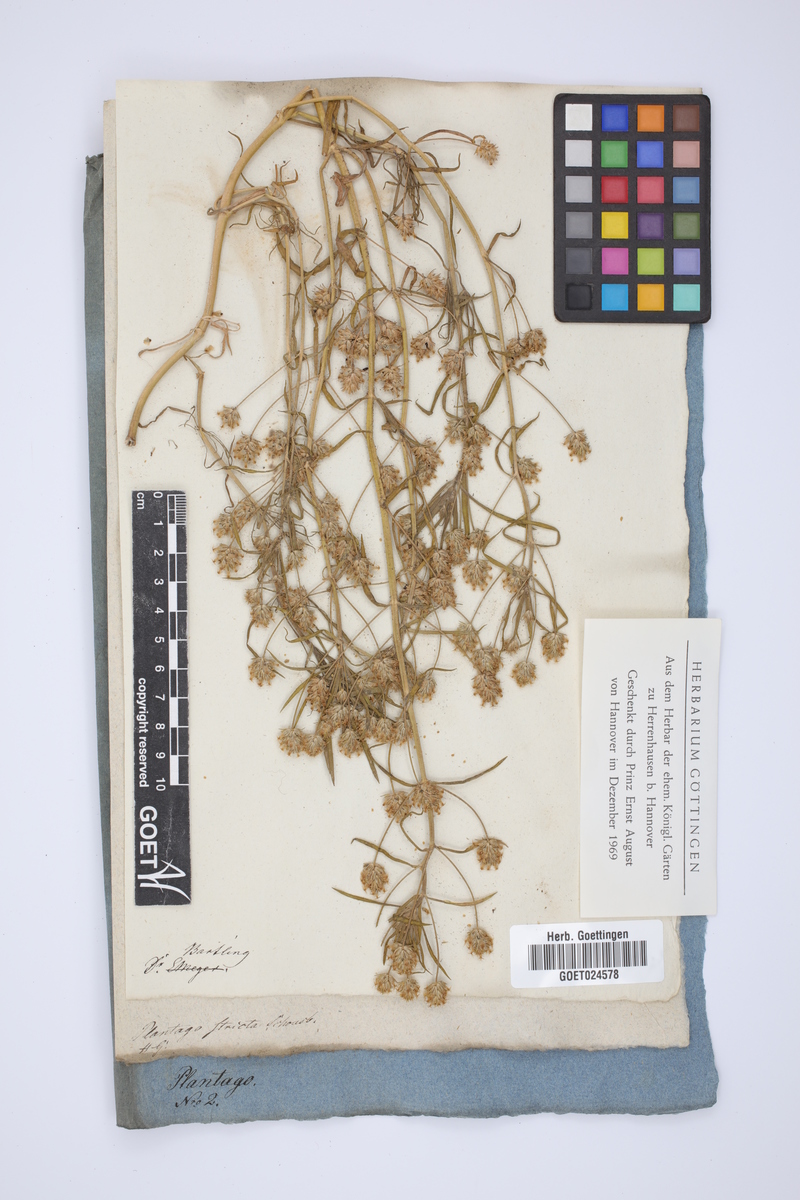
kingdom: Plantae
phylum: Tracheophyta
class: Magnoliopsida
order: Lamiales
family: Plantaginaceae
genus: Plantago
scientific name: Plantago afra
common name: Glandular plantain
